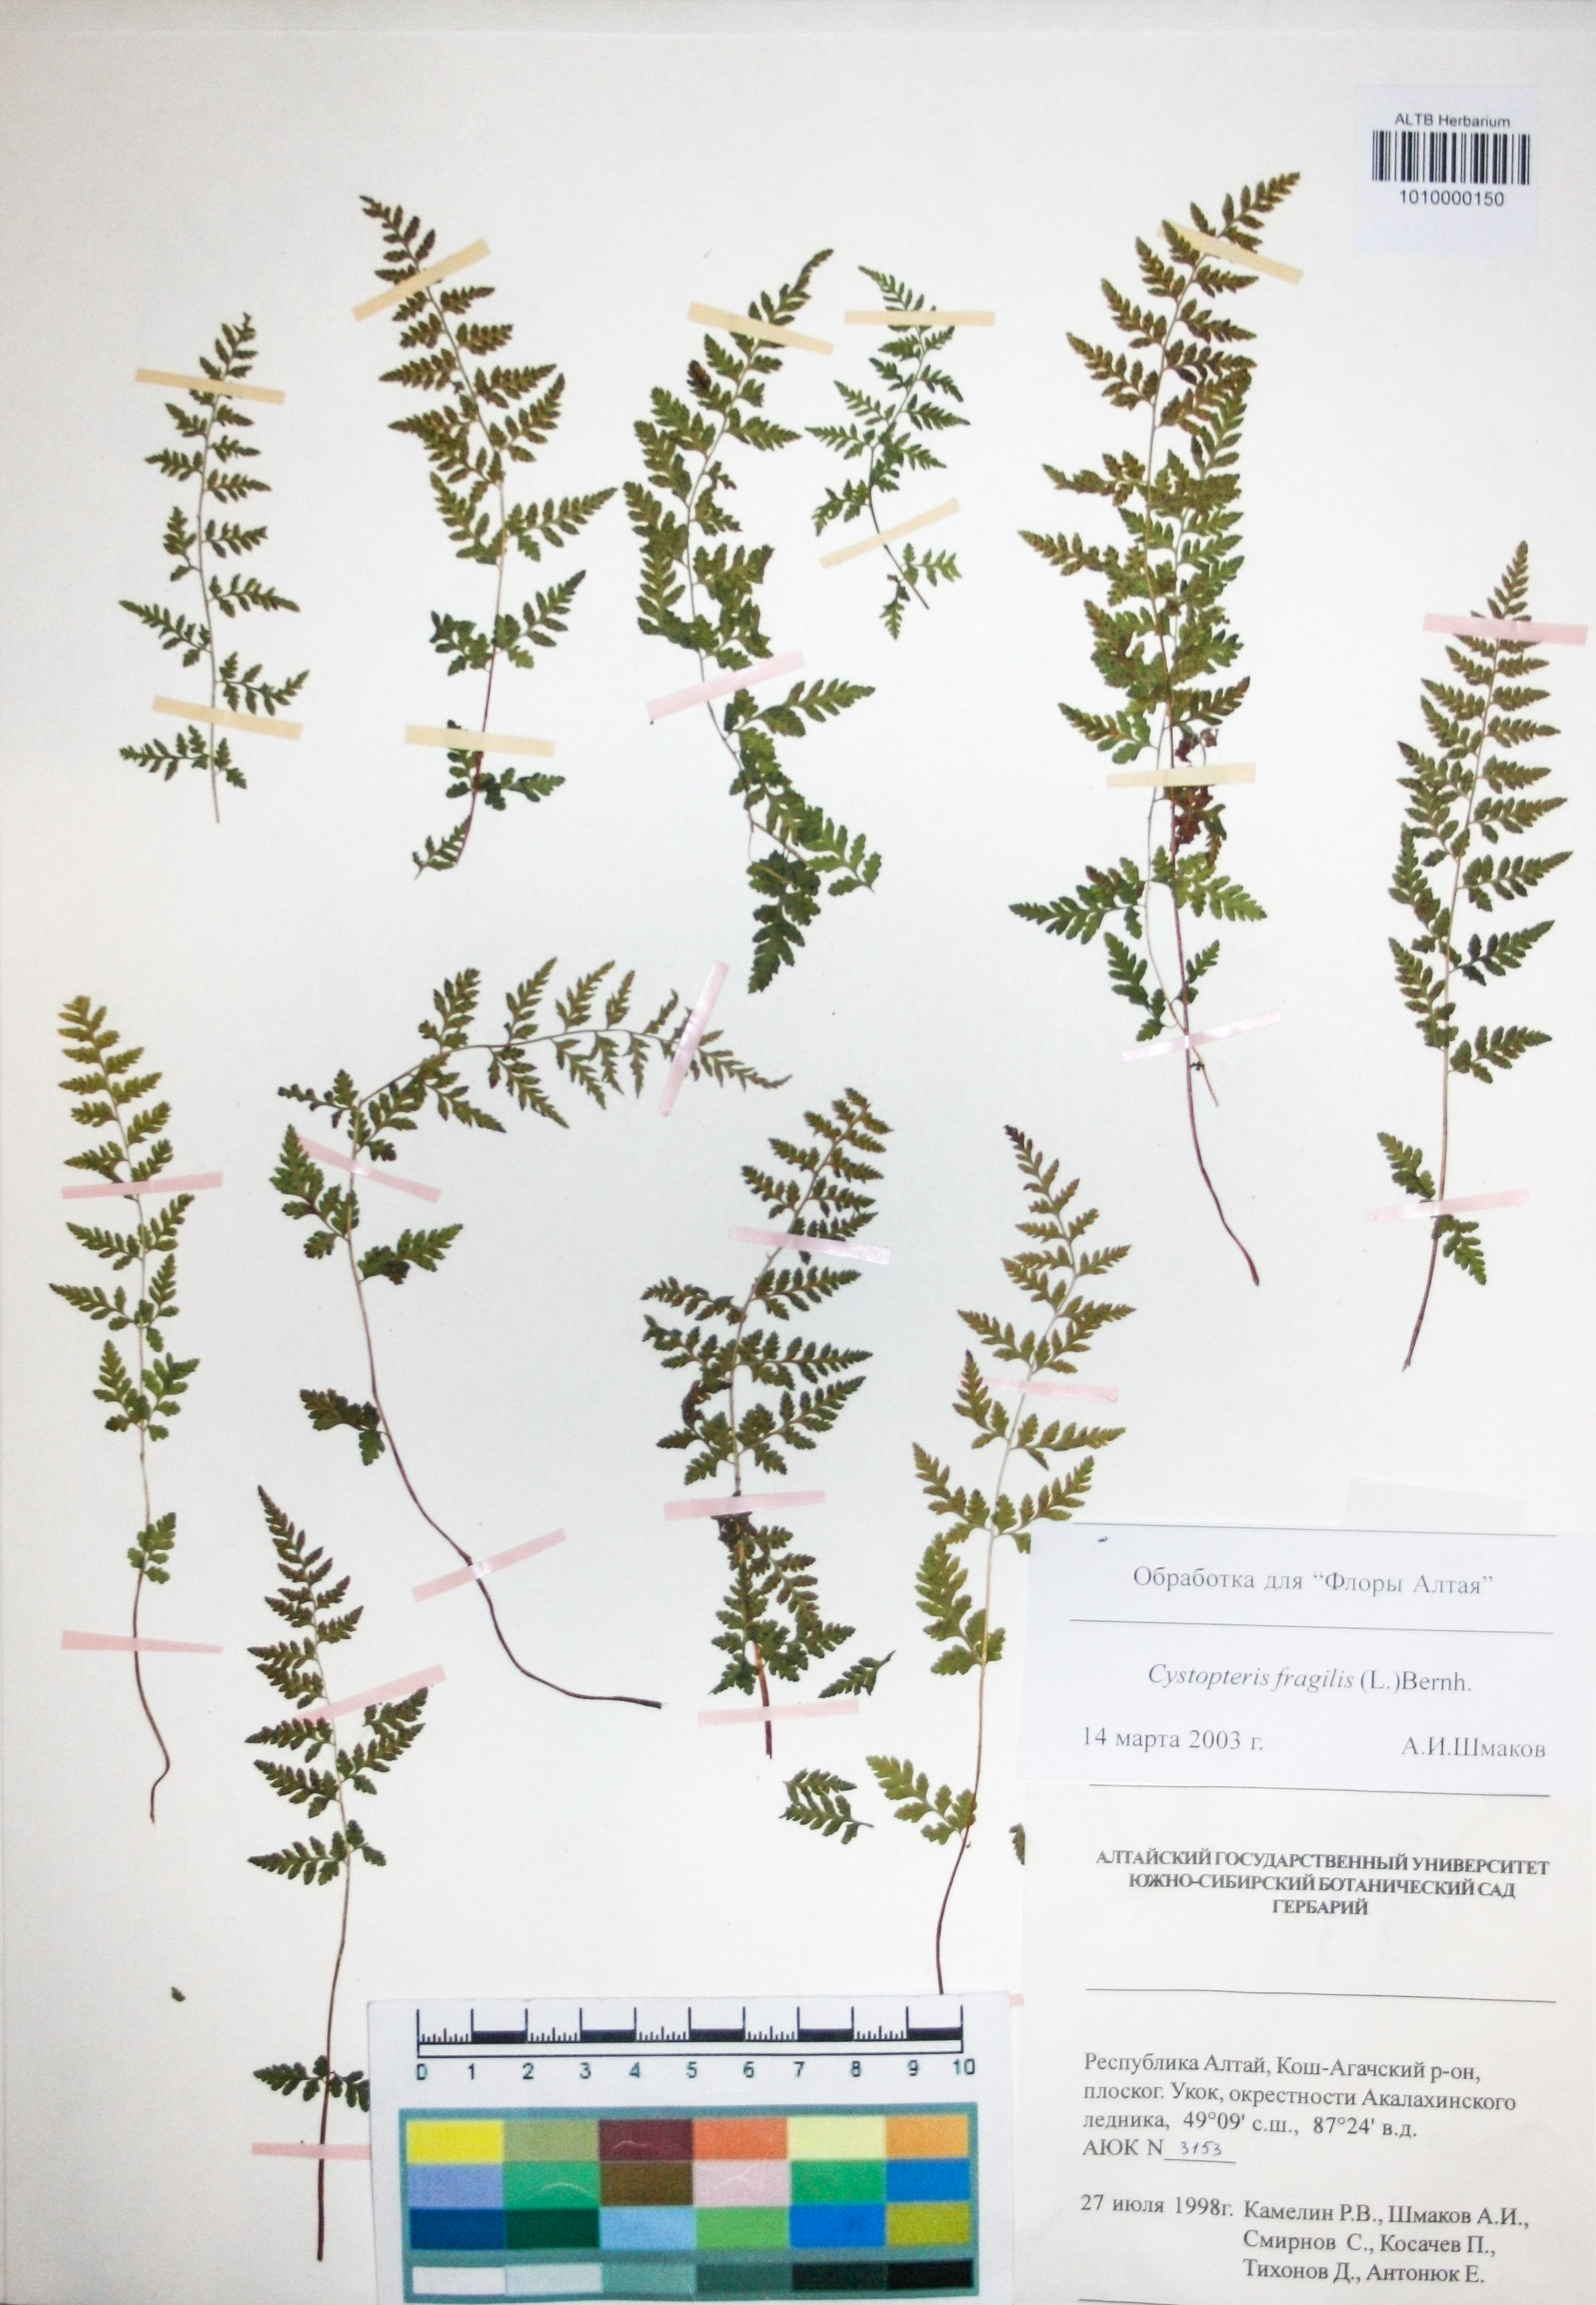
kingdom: Plantae
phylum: Tracheophyta
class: Polypodiopsida
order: Polypodiales
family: Cystopteridaceae
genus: Cystopteris
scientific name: Cystopteris fragilis
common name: Brittle bladder fern
